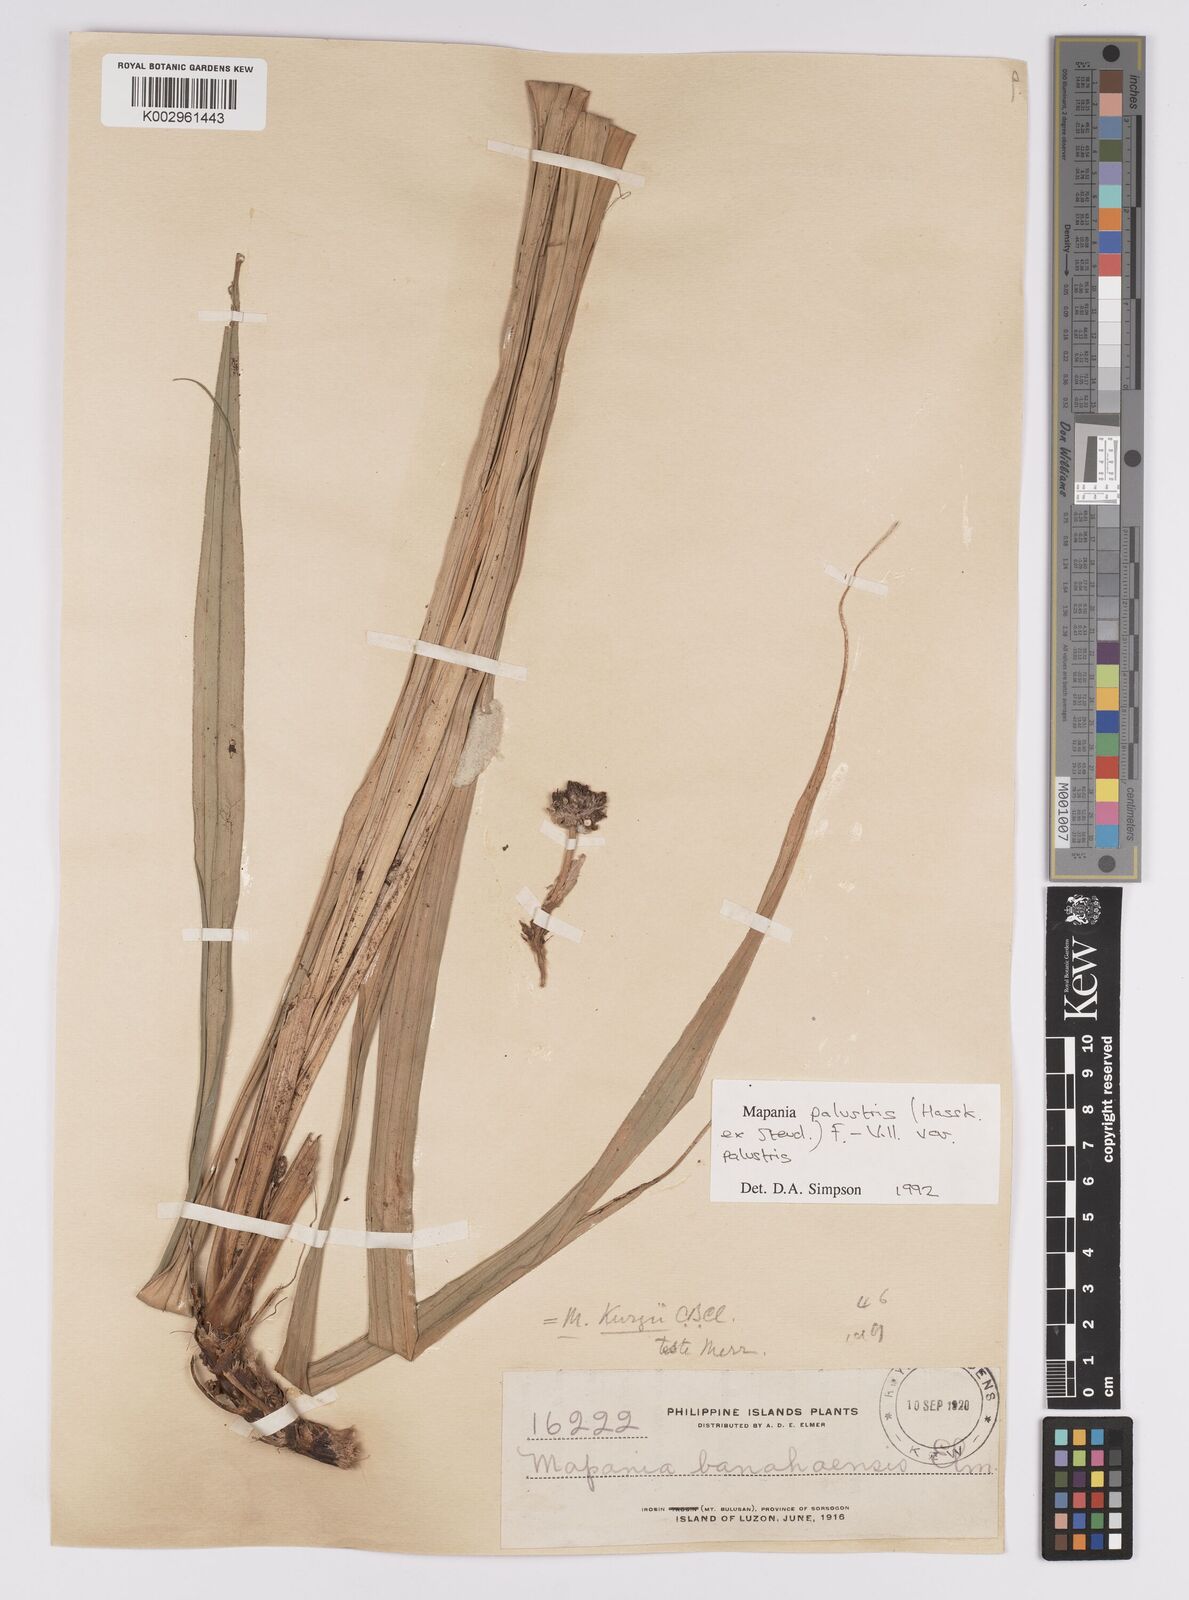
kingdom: Plantae
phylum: Tracheophyta
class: Liliopsida
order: Poales
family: Cyperaceae
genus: Mapania
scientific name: Mapania palustris
